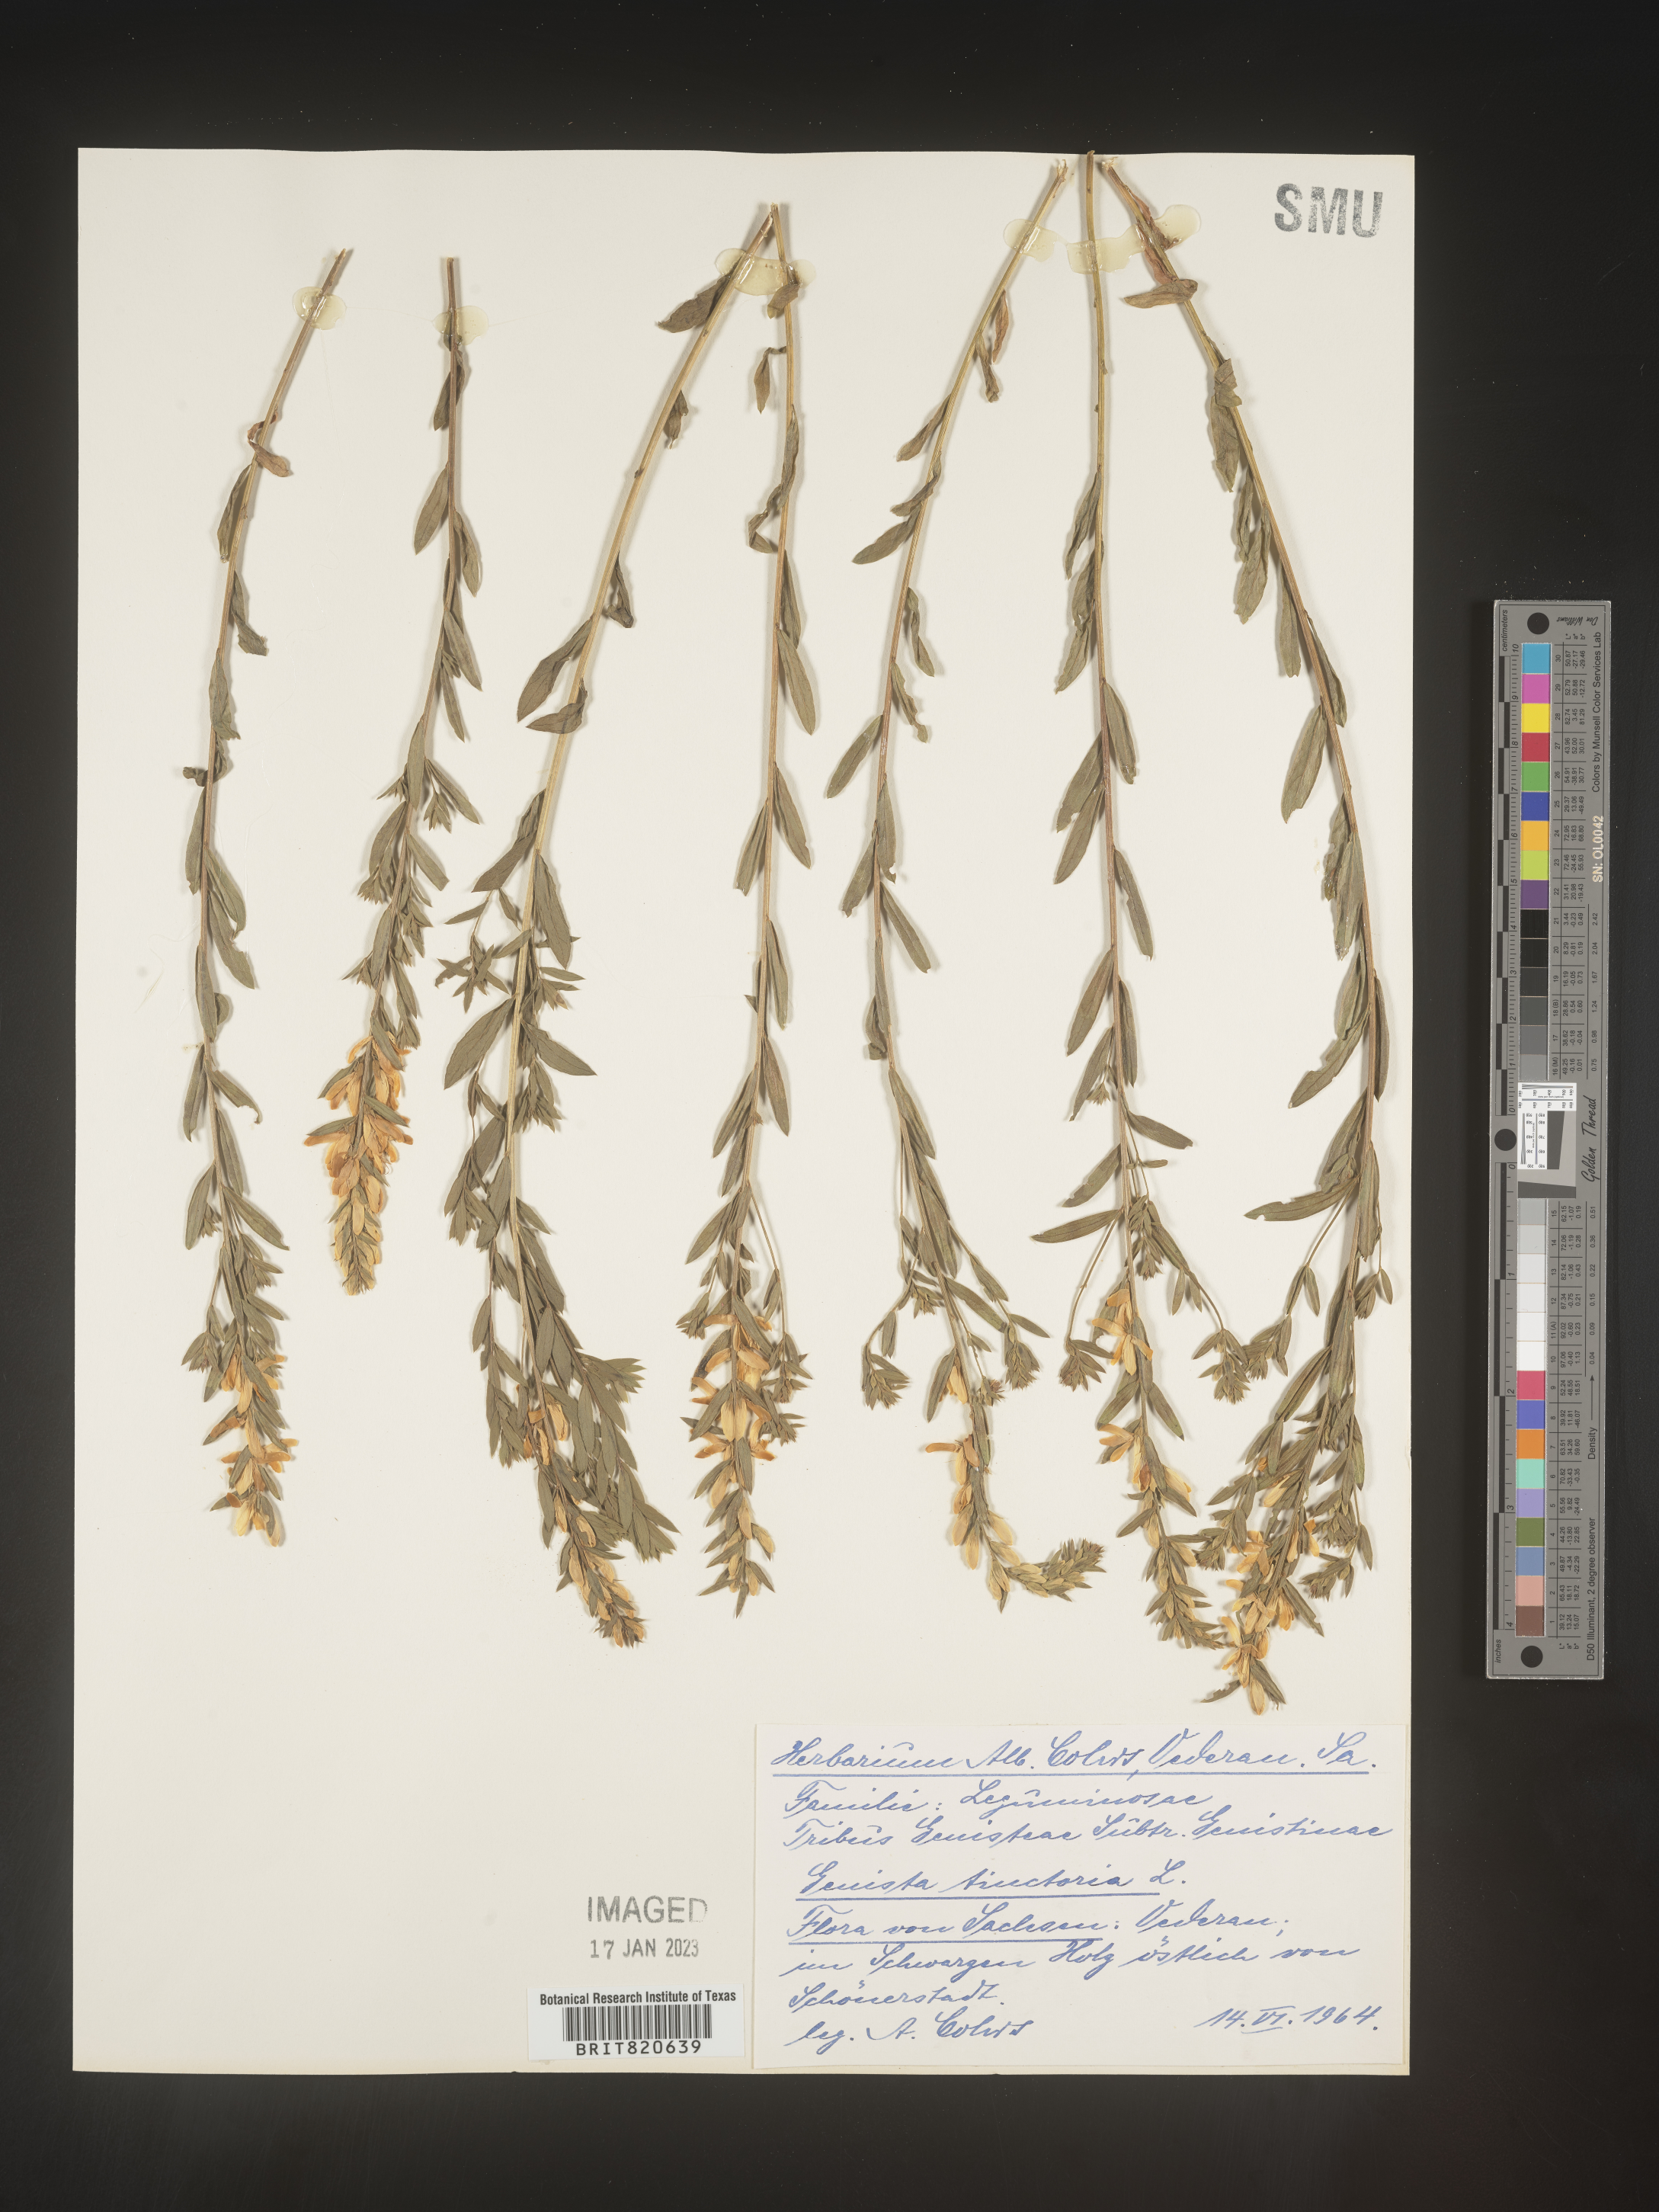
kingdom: Plantae
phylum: Tracheophyta
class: Magnoliopsida
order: Fabales
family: Fabaceae
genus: Genista
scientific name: Genista tinctoria
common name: Dyer's greenweed
